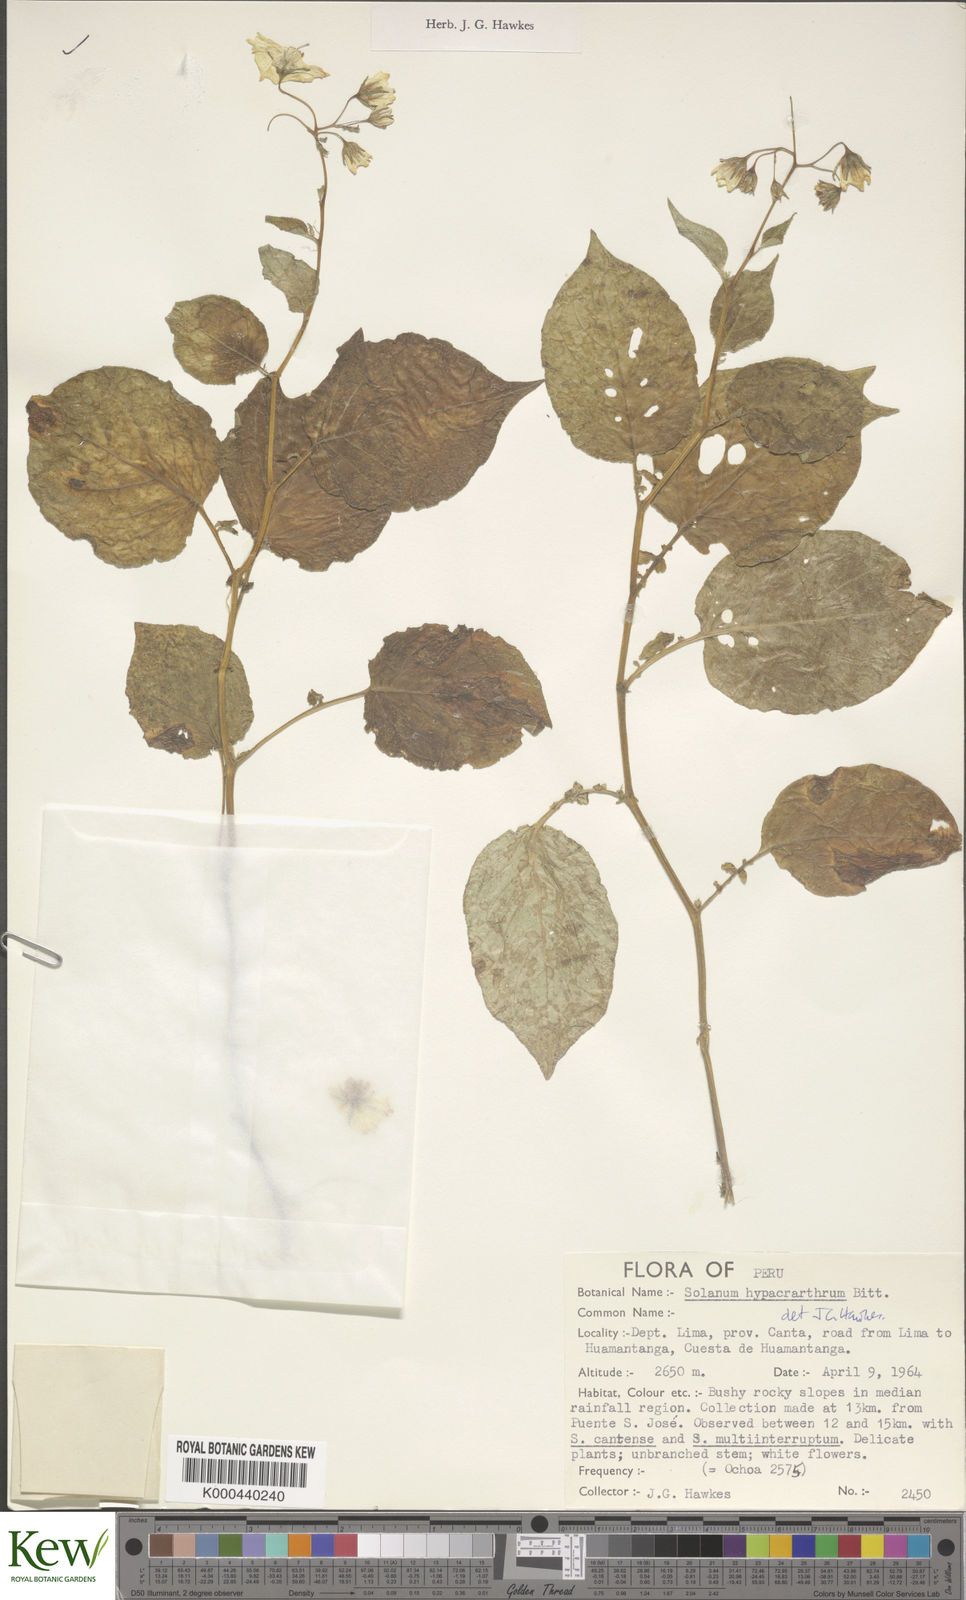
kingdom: Plantae
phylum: Tracheophyta
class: Magnoliopsida
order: Solanales
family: Solanaceae
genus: Solanum
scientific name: Solanum hypacrarthrum
